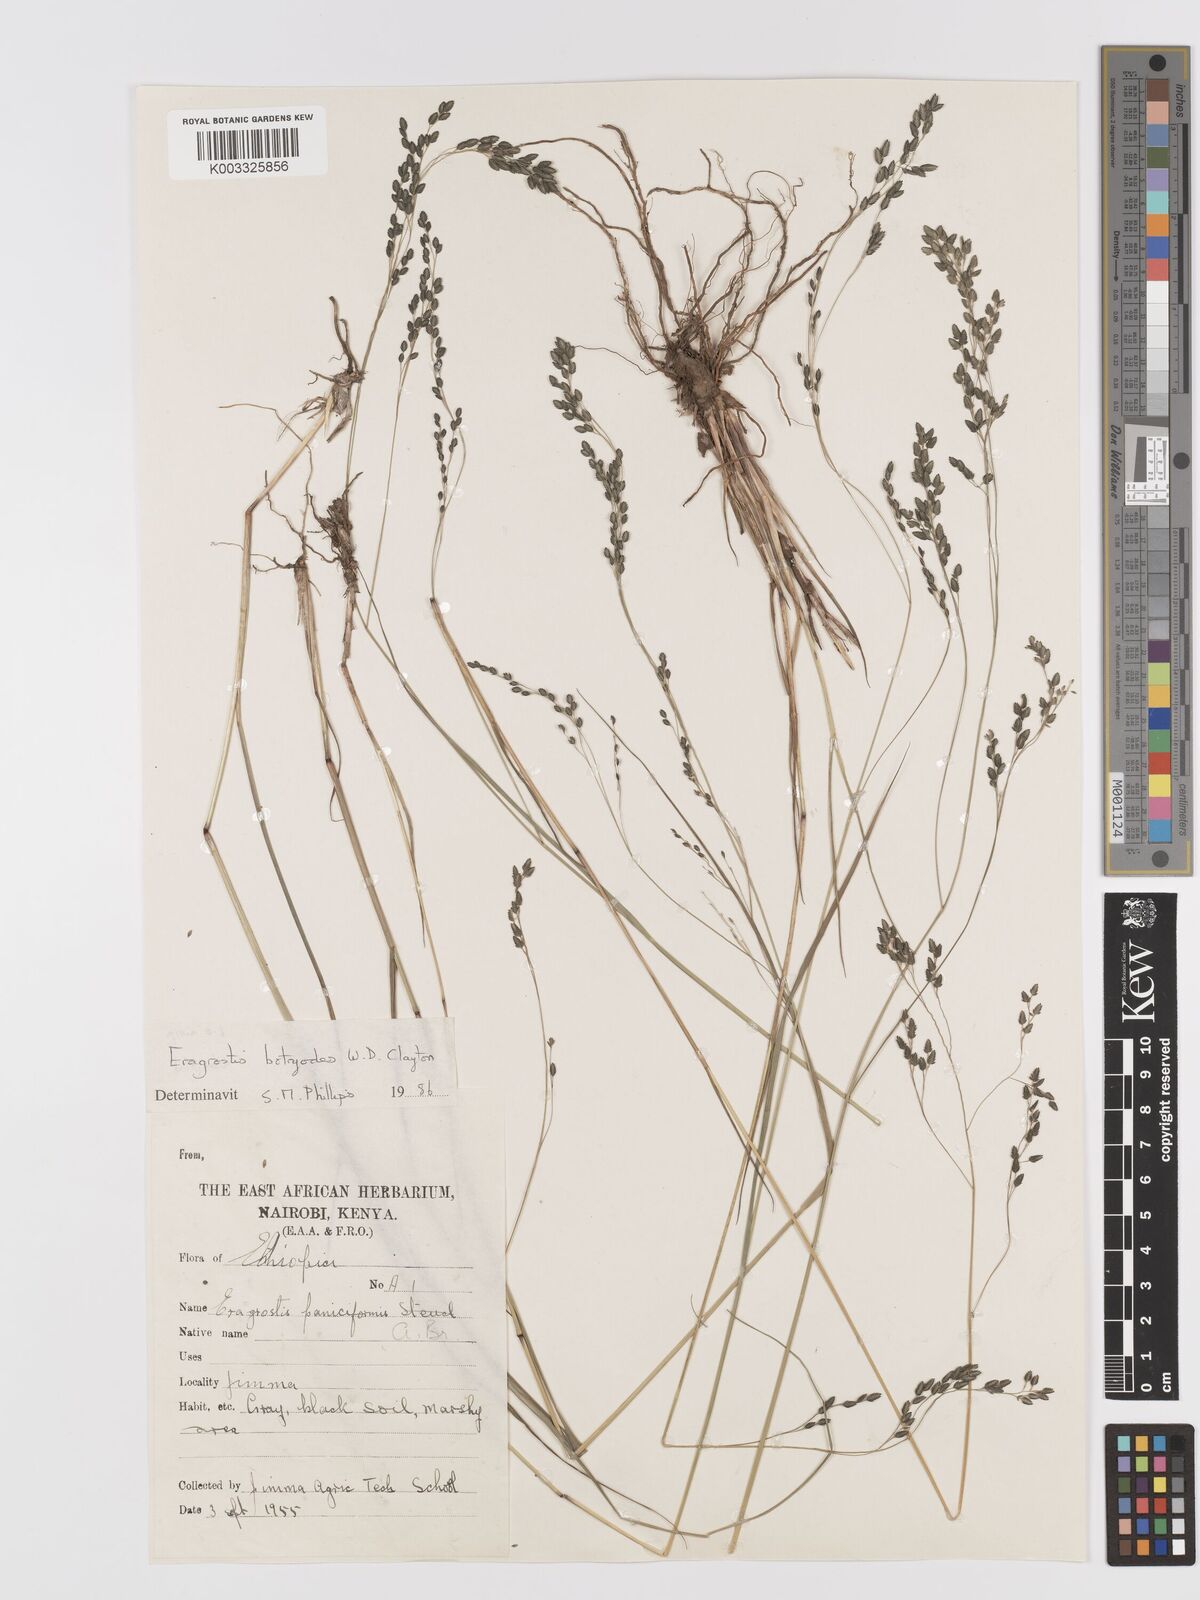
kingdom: Plantae
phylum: Tracheophyta
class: Liliopsida
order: Poales
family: Poaceae
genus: Eragrostis
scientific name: Eragrostis botryodes
